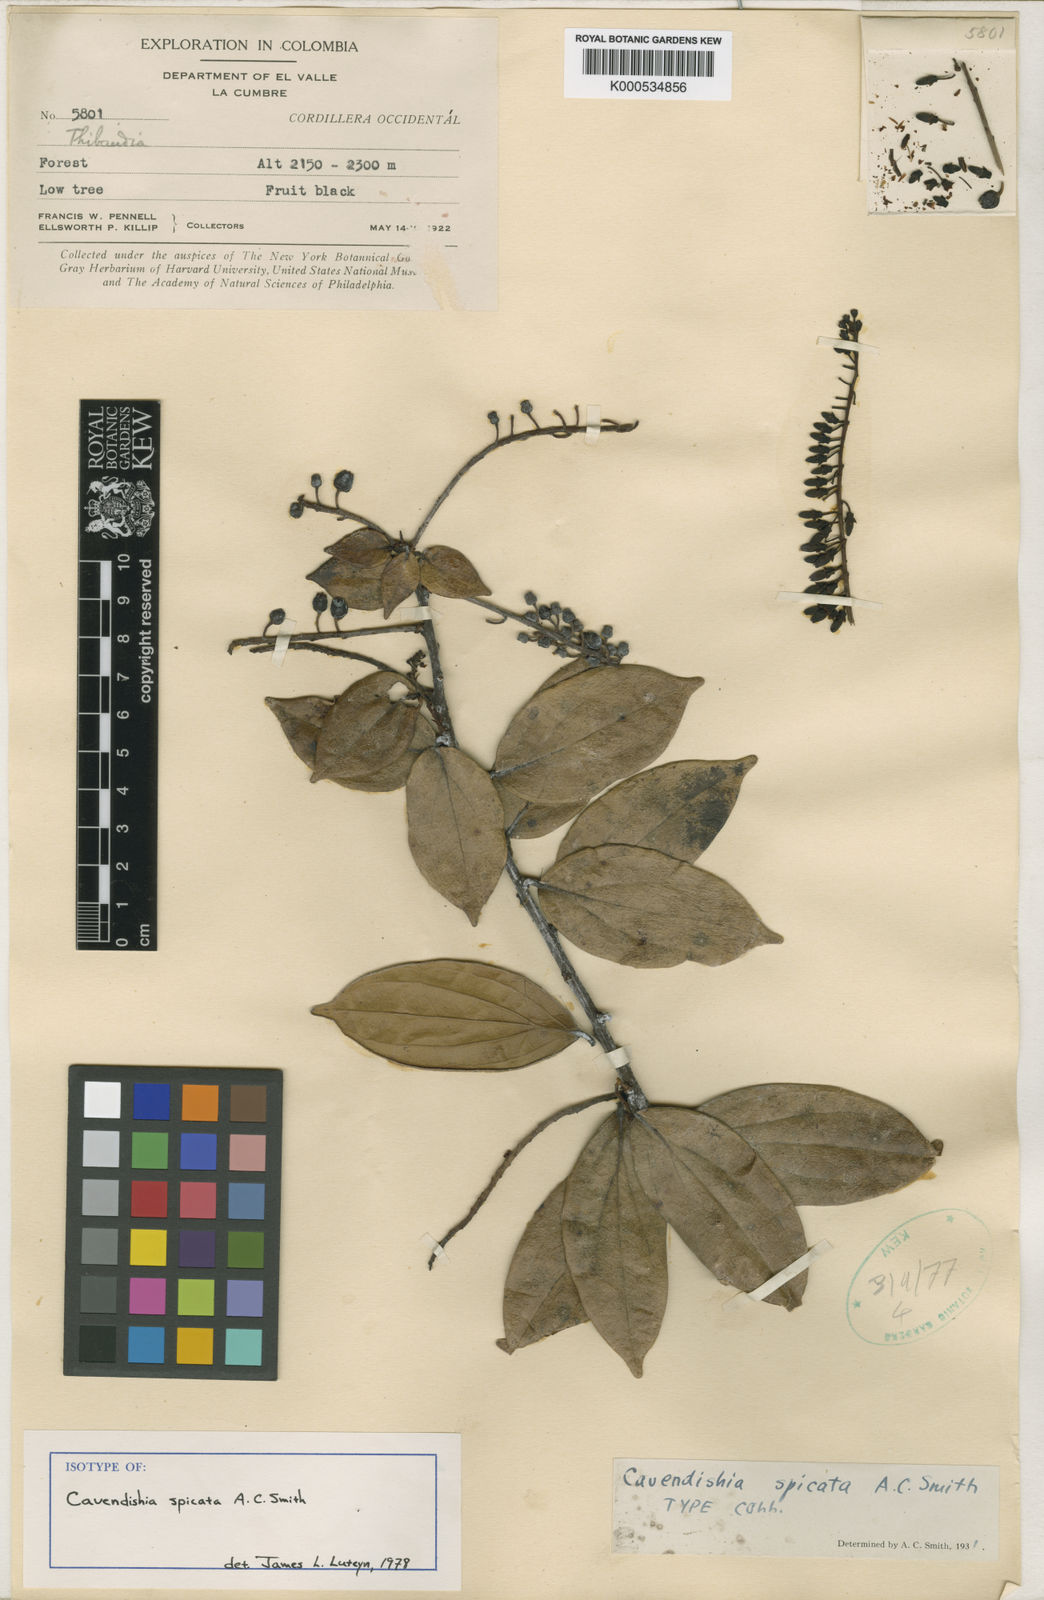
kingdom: Plantae
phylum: Tracheophyta
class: Magnoliopsida
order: Ericales
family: Ericaceae
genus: Cavendishia
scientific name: Cavendishia spicata
